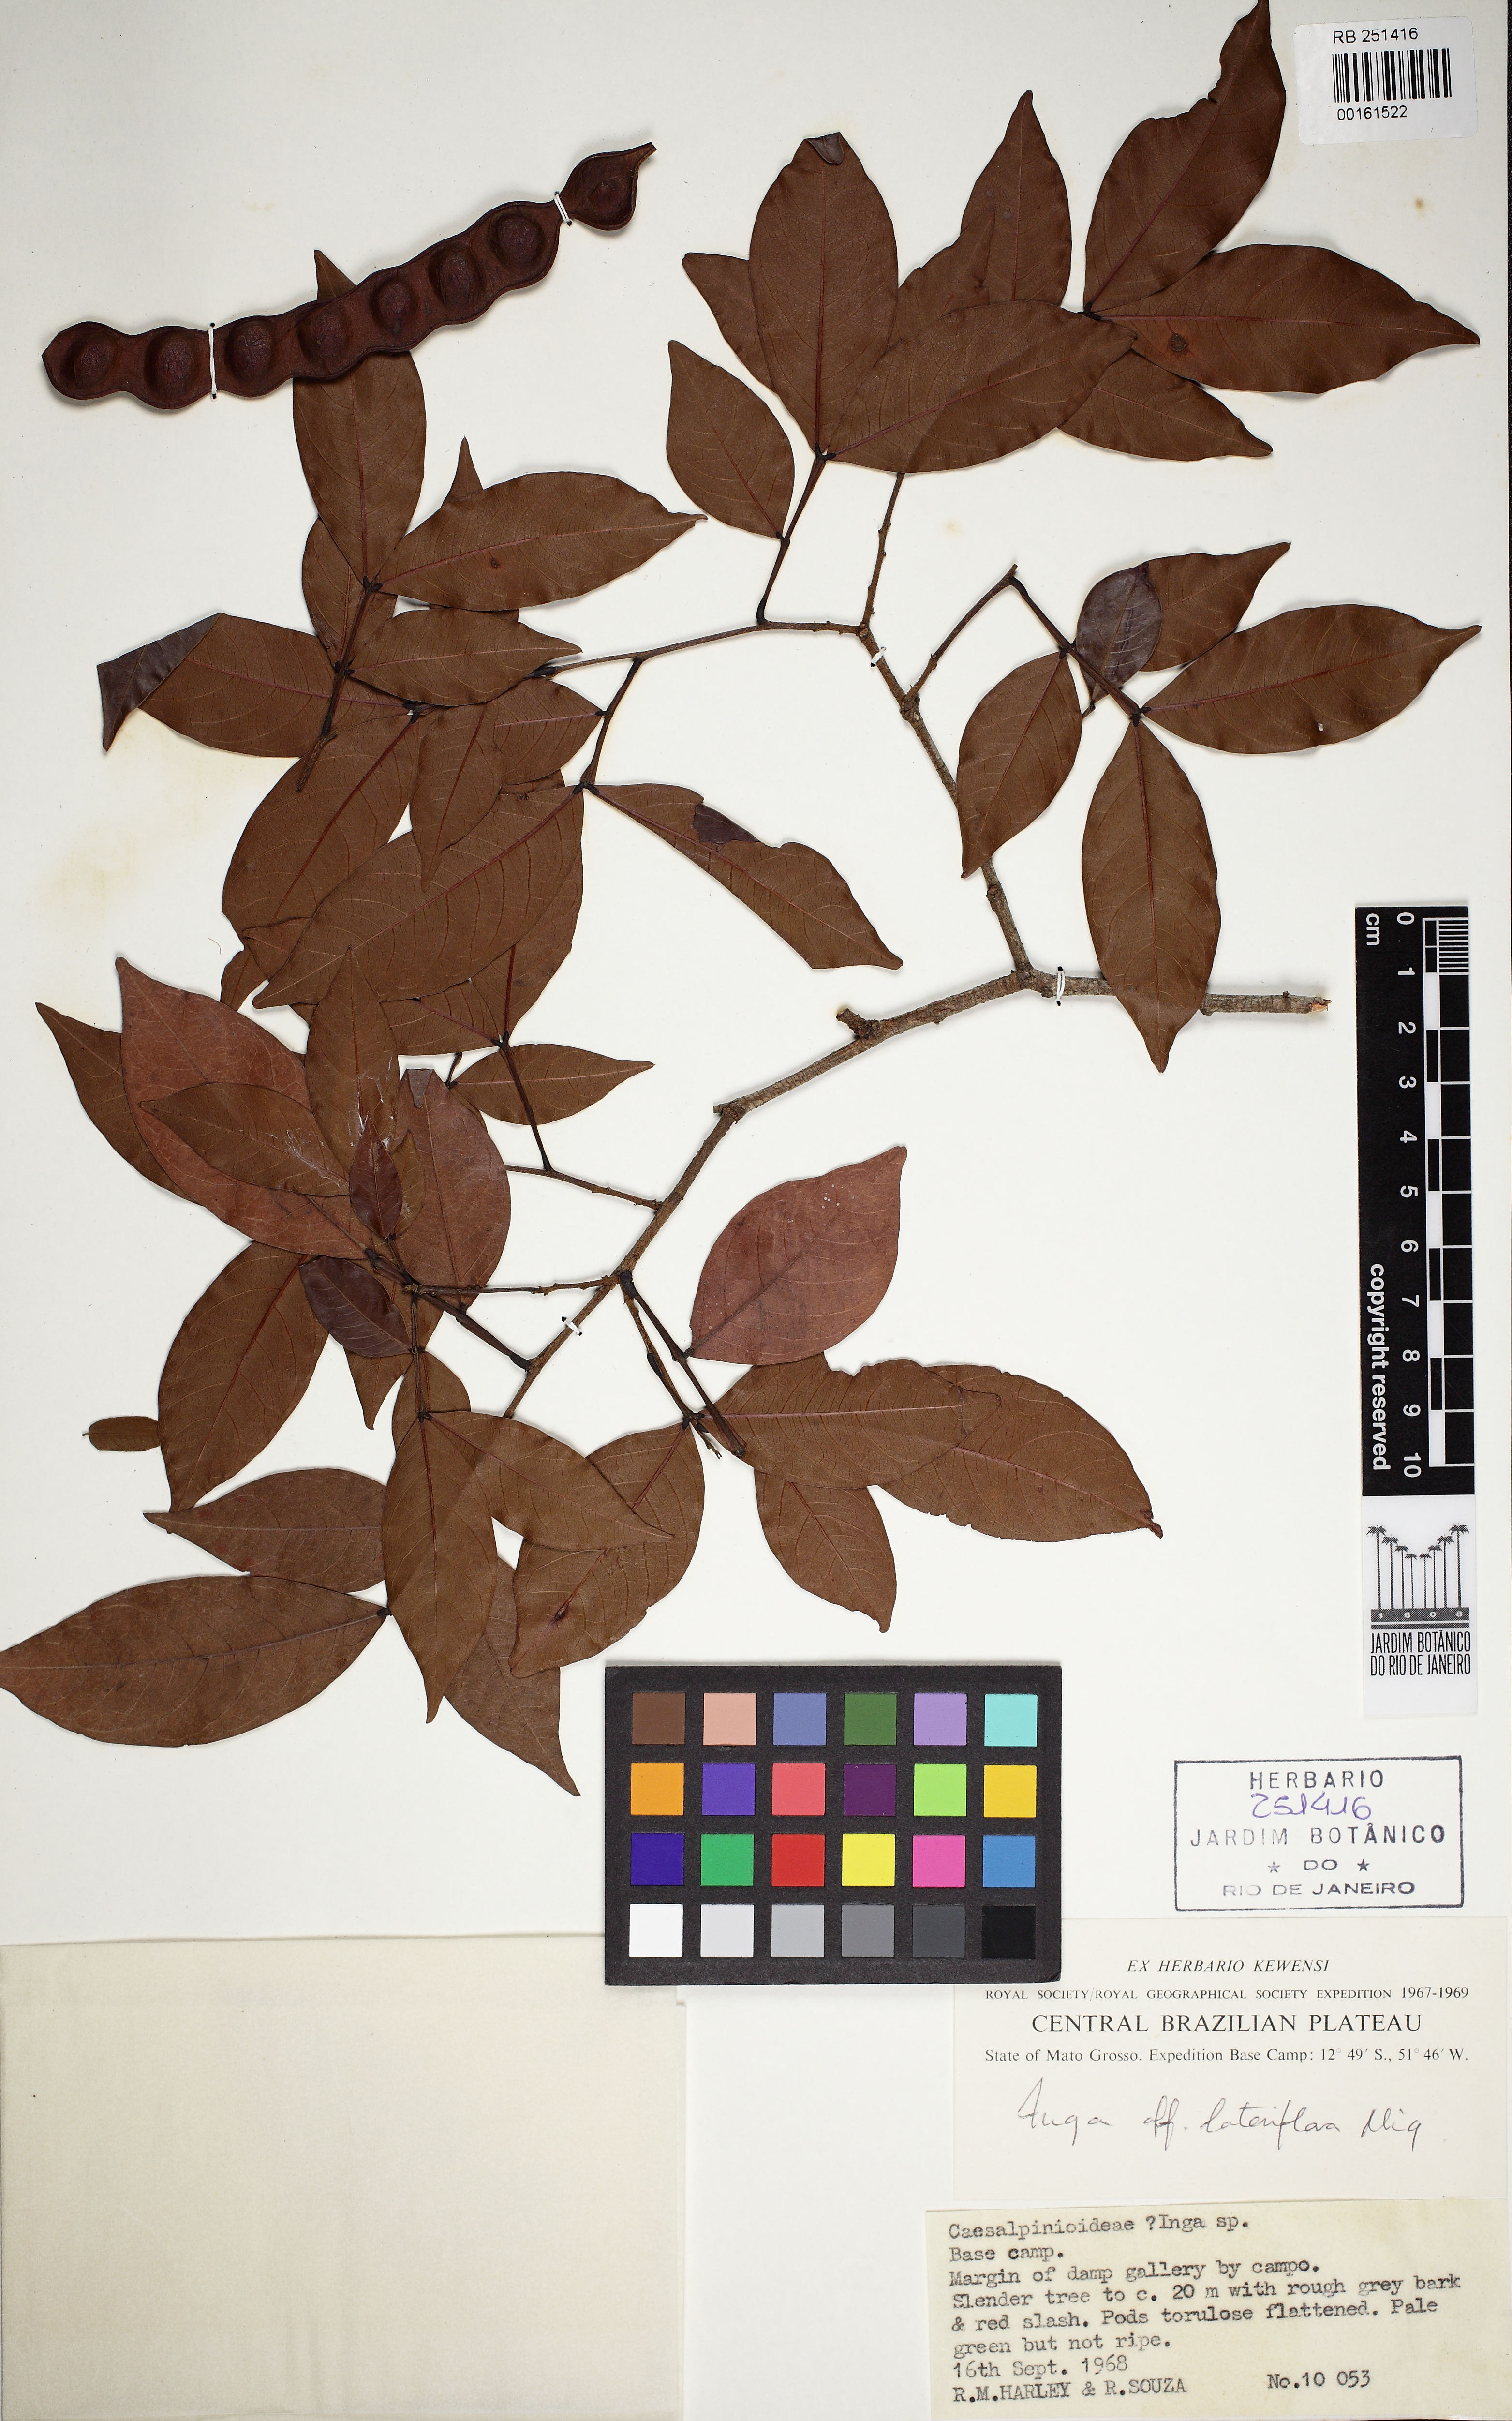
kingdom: Plantae
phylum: Tracheophyta
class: Magnoliopsida
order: Fabales
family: Fabaceae
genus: Inga
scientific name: Inga lateriflora
